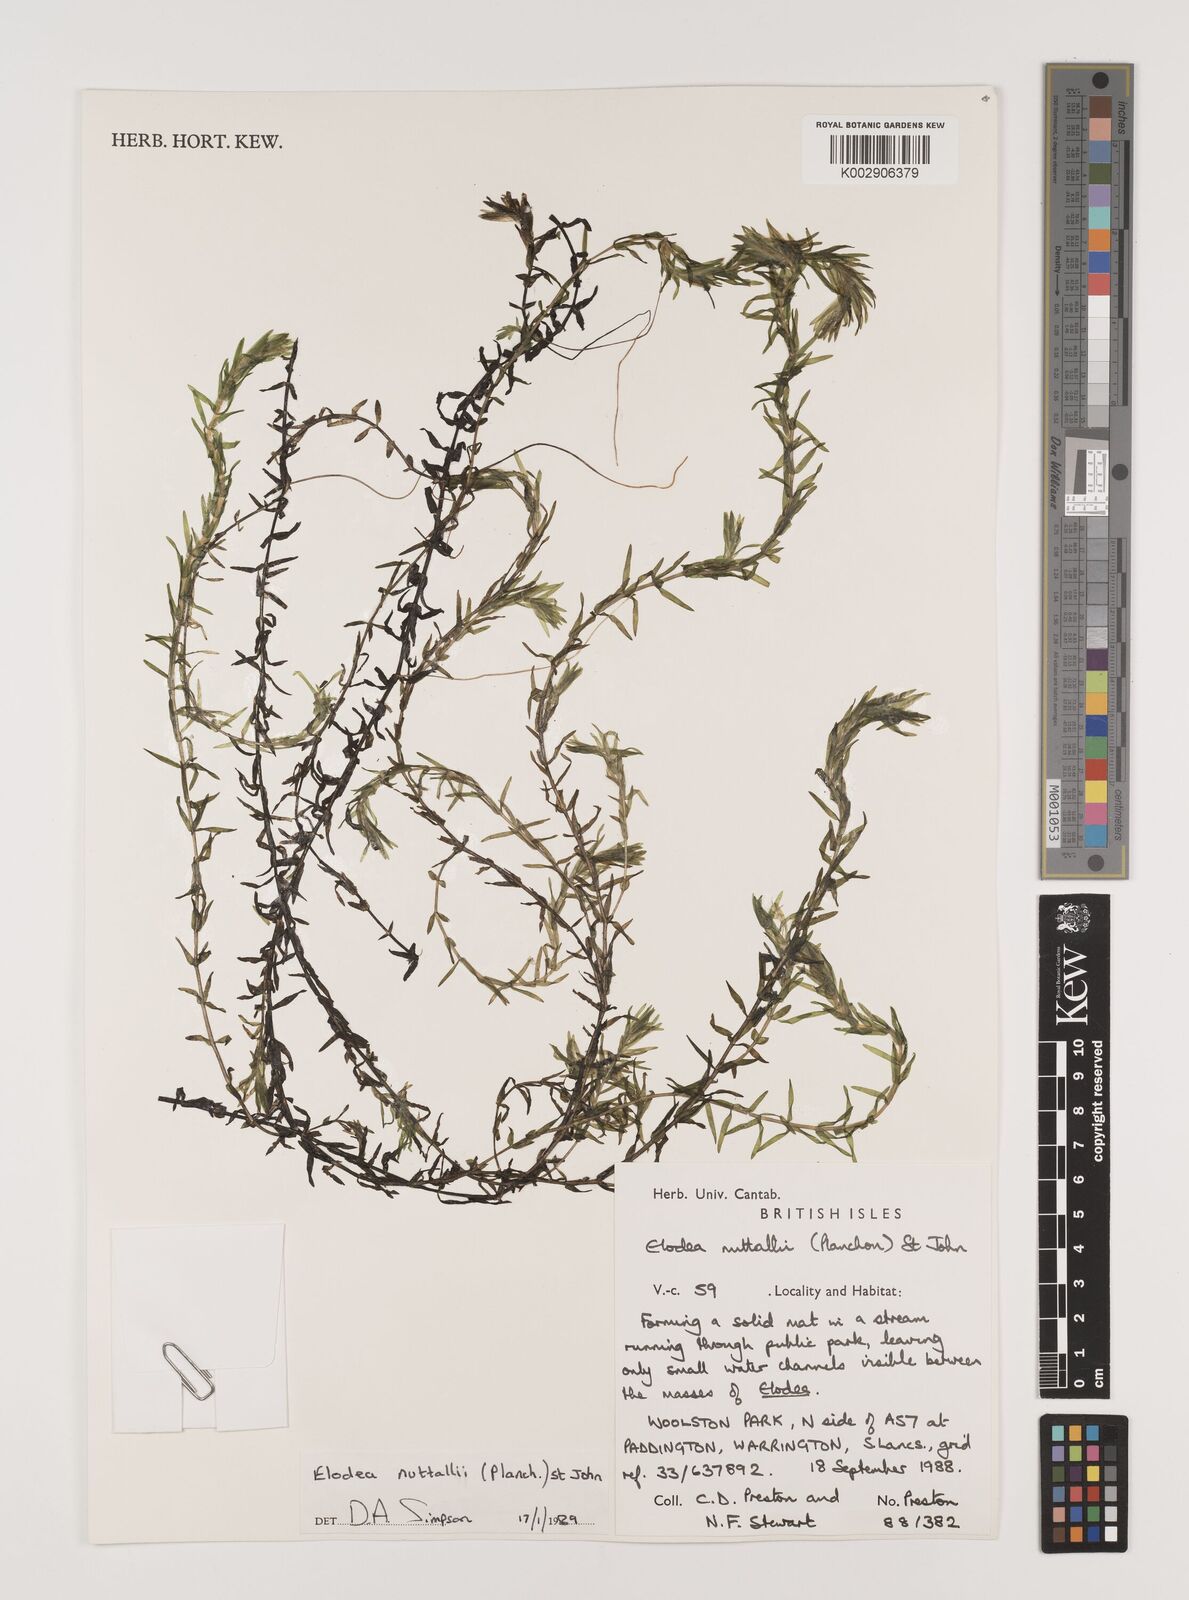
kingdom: Plantae
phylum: Tracheophyta
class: Liliopsida
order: Alismatales
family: Hydrocharitaceae
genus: Elodea
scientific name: Elodea nuttallii
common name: Nuttall's waterweed
